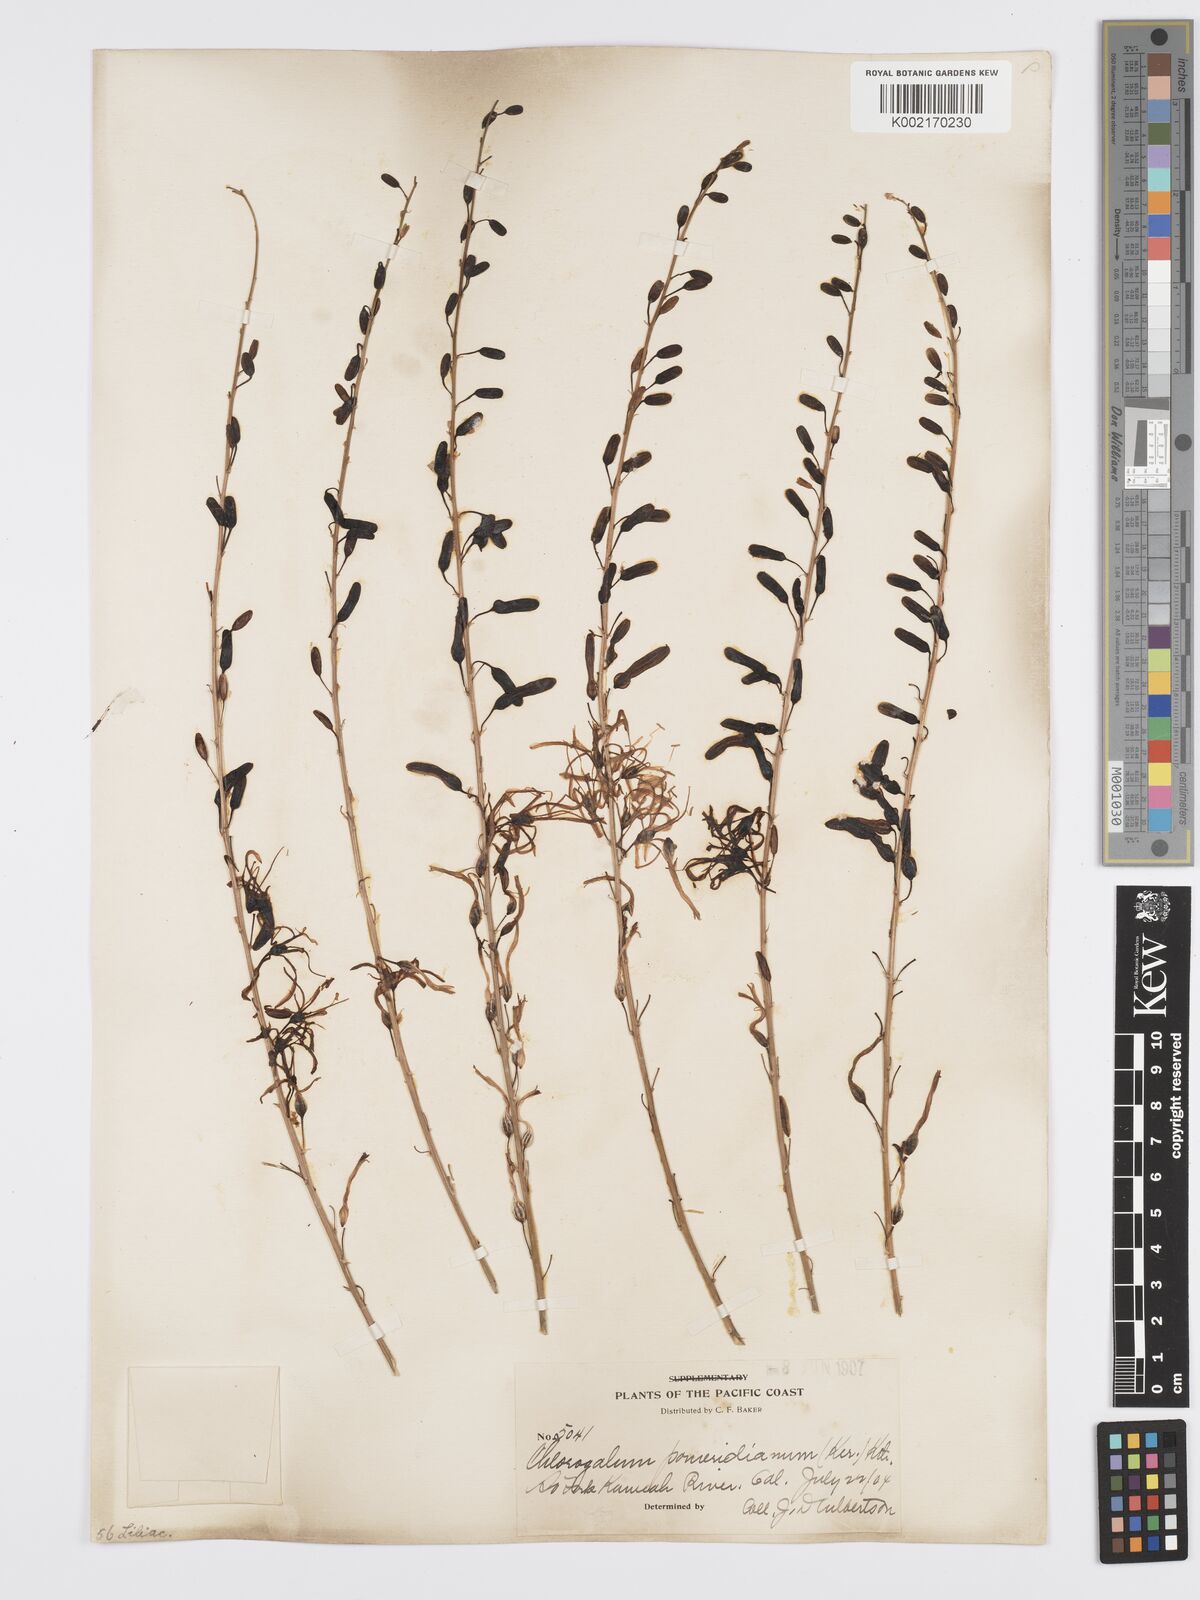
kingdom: Plantae
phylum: Tracheophyta
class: Liliopsida
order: Asparagales
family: Asparagaceae
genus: Chlorogalum
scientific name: Chlorogalum pomeridianum
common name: Amole
